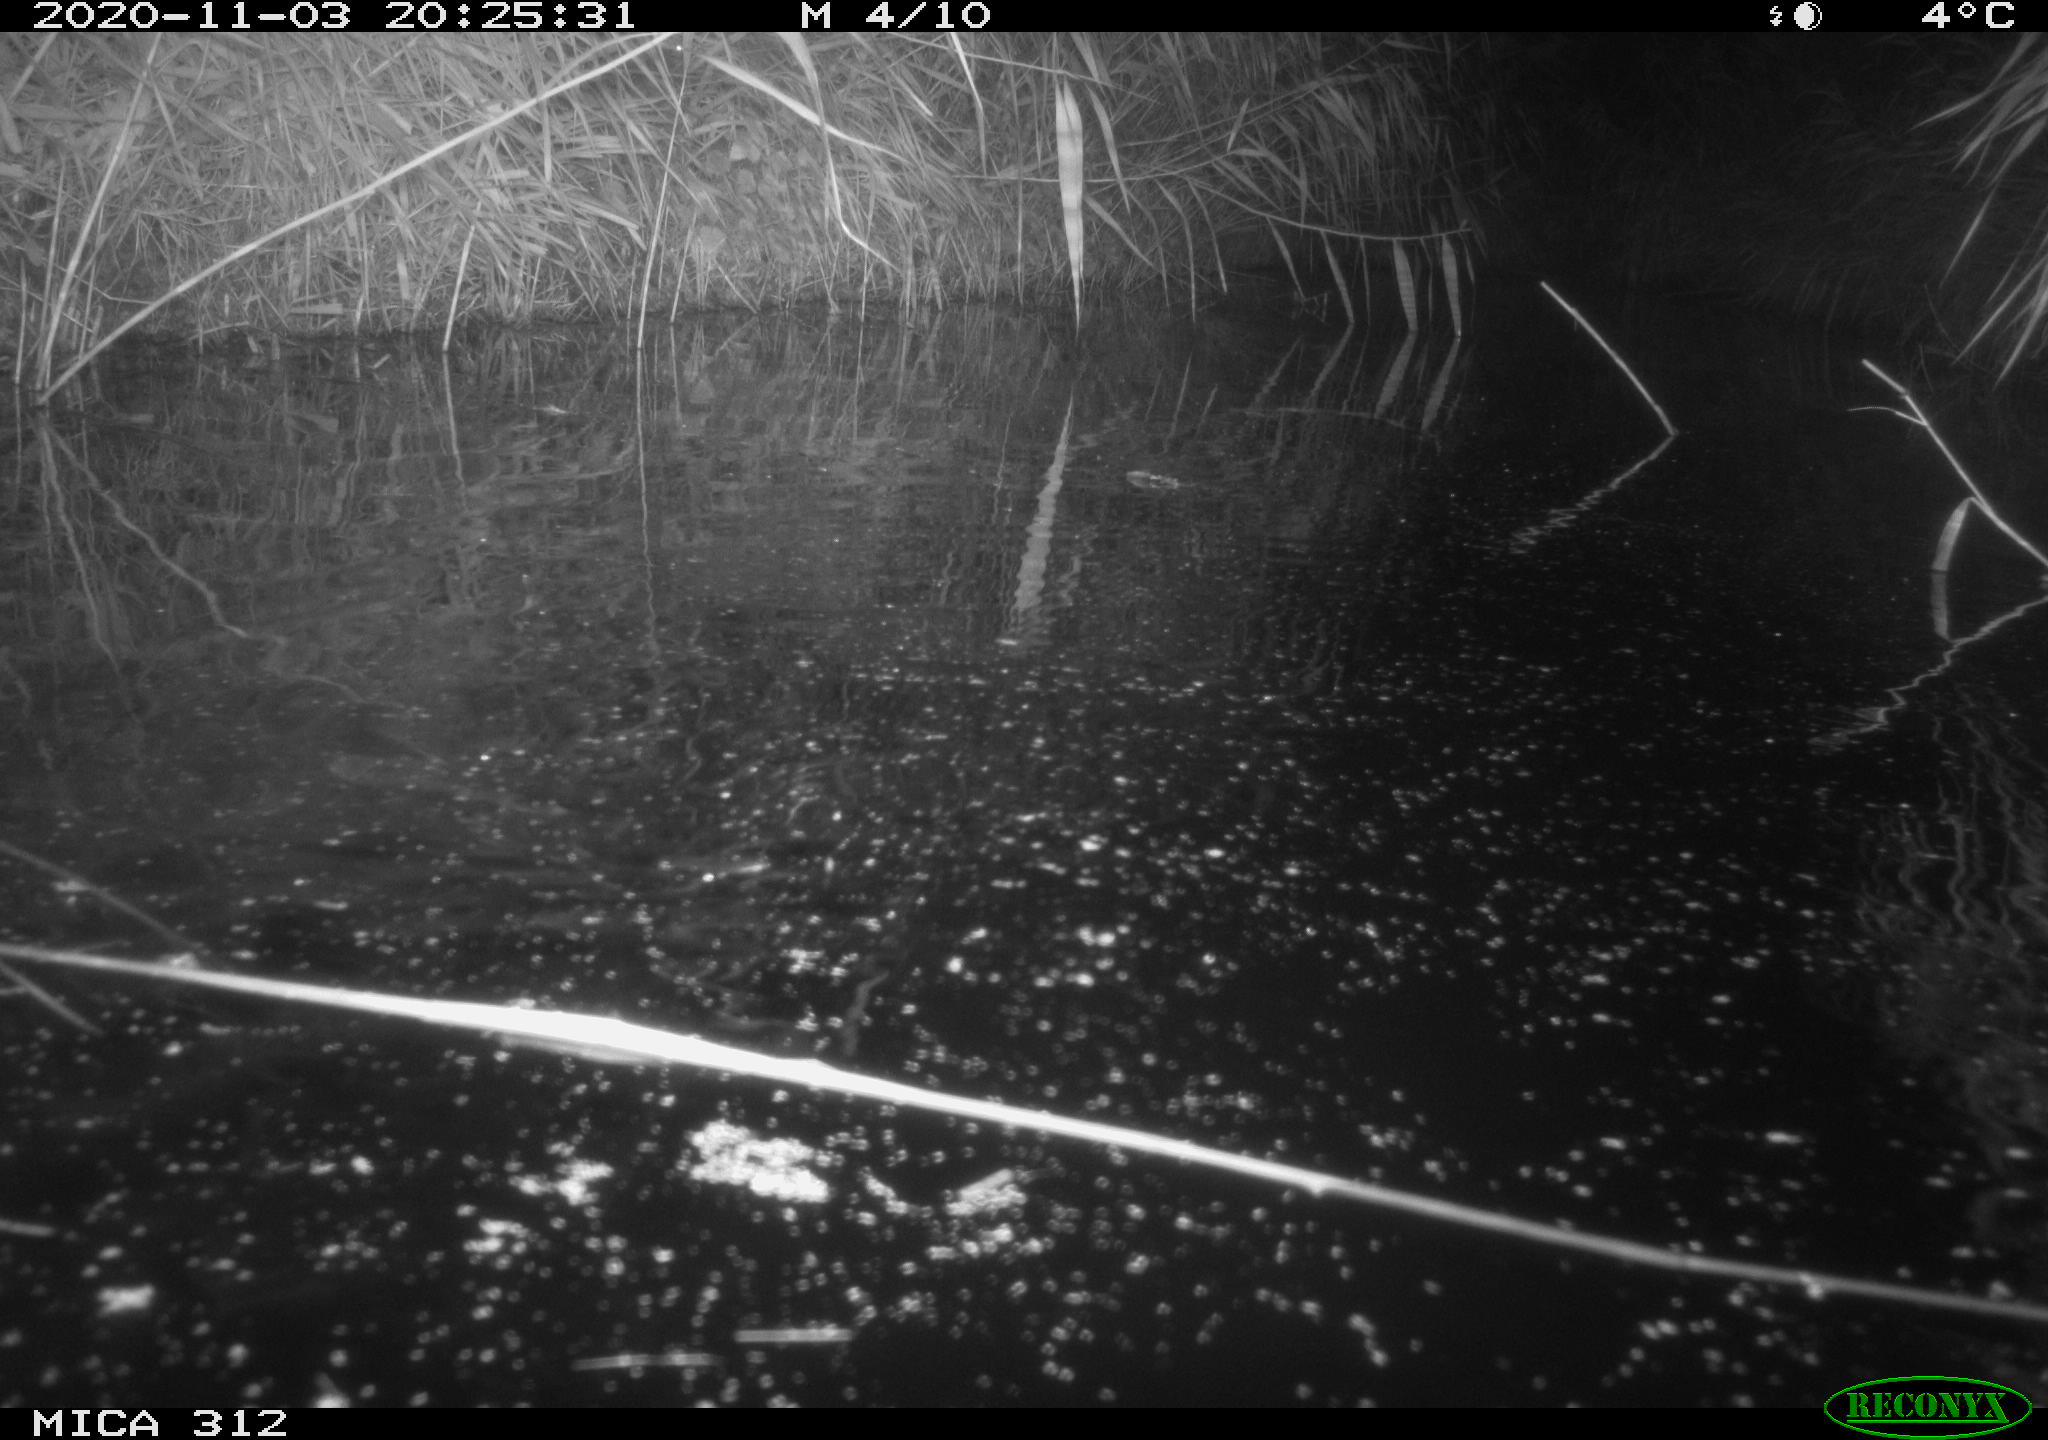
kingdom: Animalia
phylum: Chordata
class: Mammalia
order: Rodentia
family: Cricetidae
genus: Ondatra
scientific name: Ondatra zibethicus
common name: Muskrat
